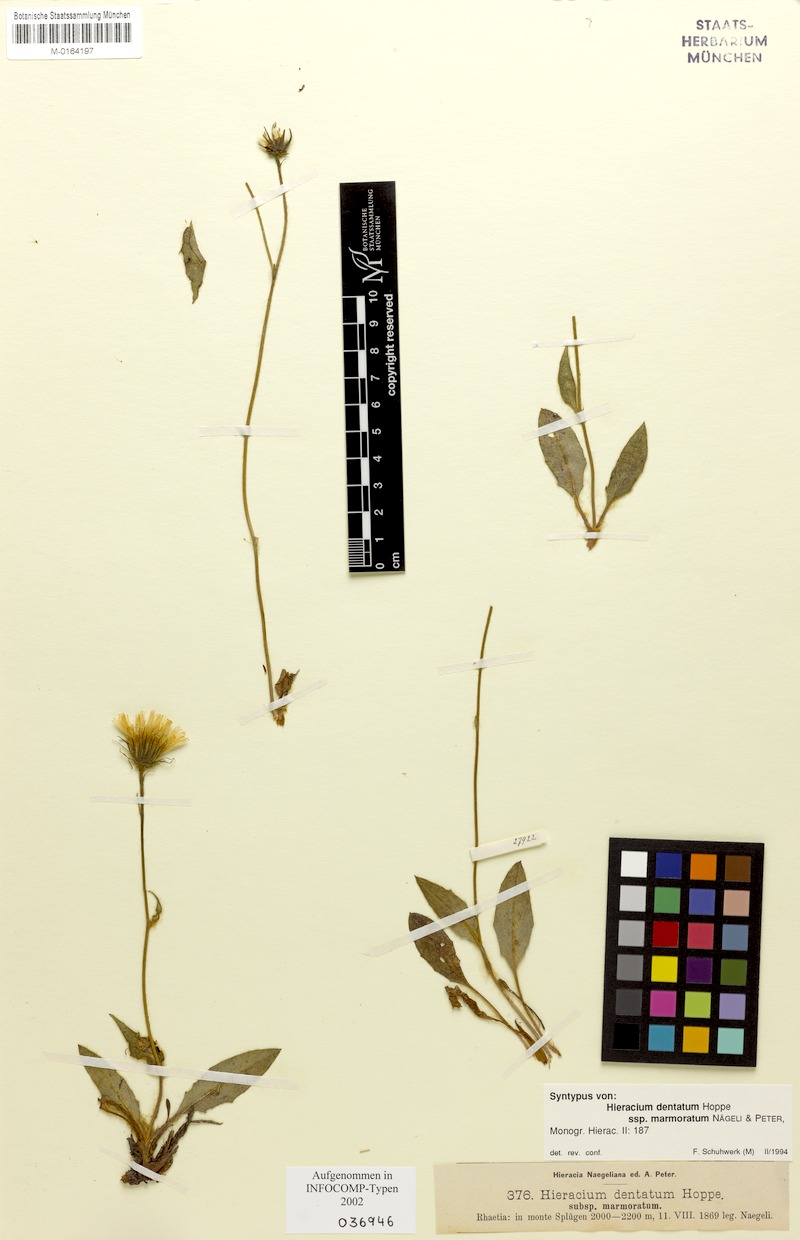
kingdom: Plantae
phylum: Tracheophyta
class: Magnoliopsida
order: Asterales
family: Asteraceae
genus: Hieracium
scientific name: Hieracium dentatum
